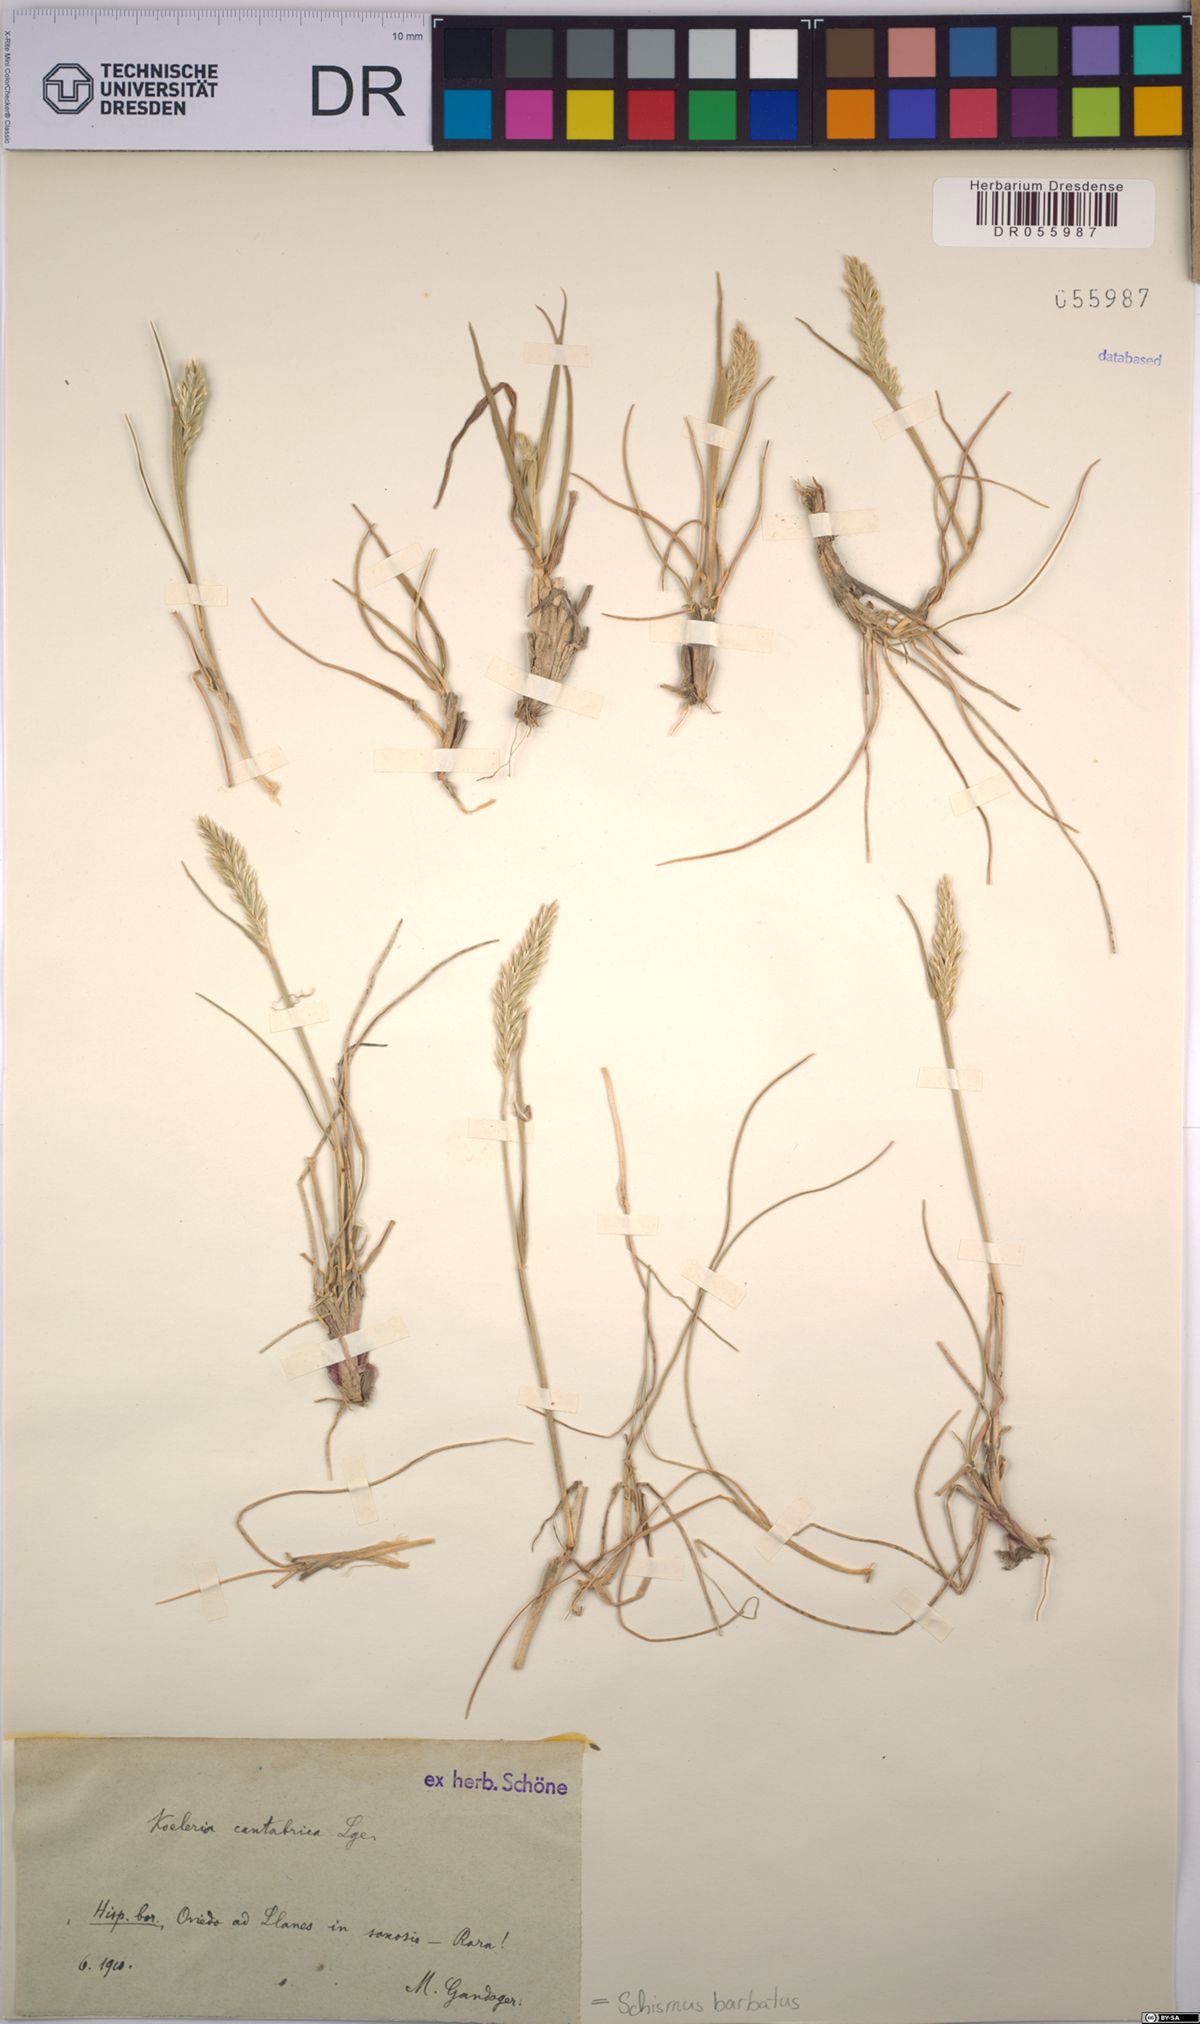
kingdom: Plantae
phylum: Tracheophyta
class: Liliopsida
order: Poales
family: Poaceae
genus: Schismus
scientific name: Schismus barbatus
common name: Kelch-grass
